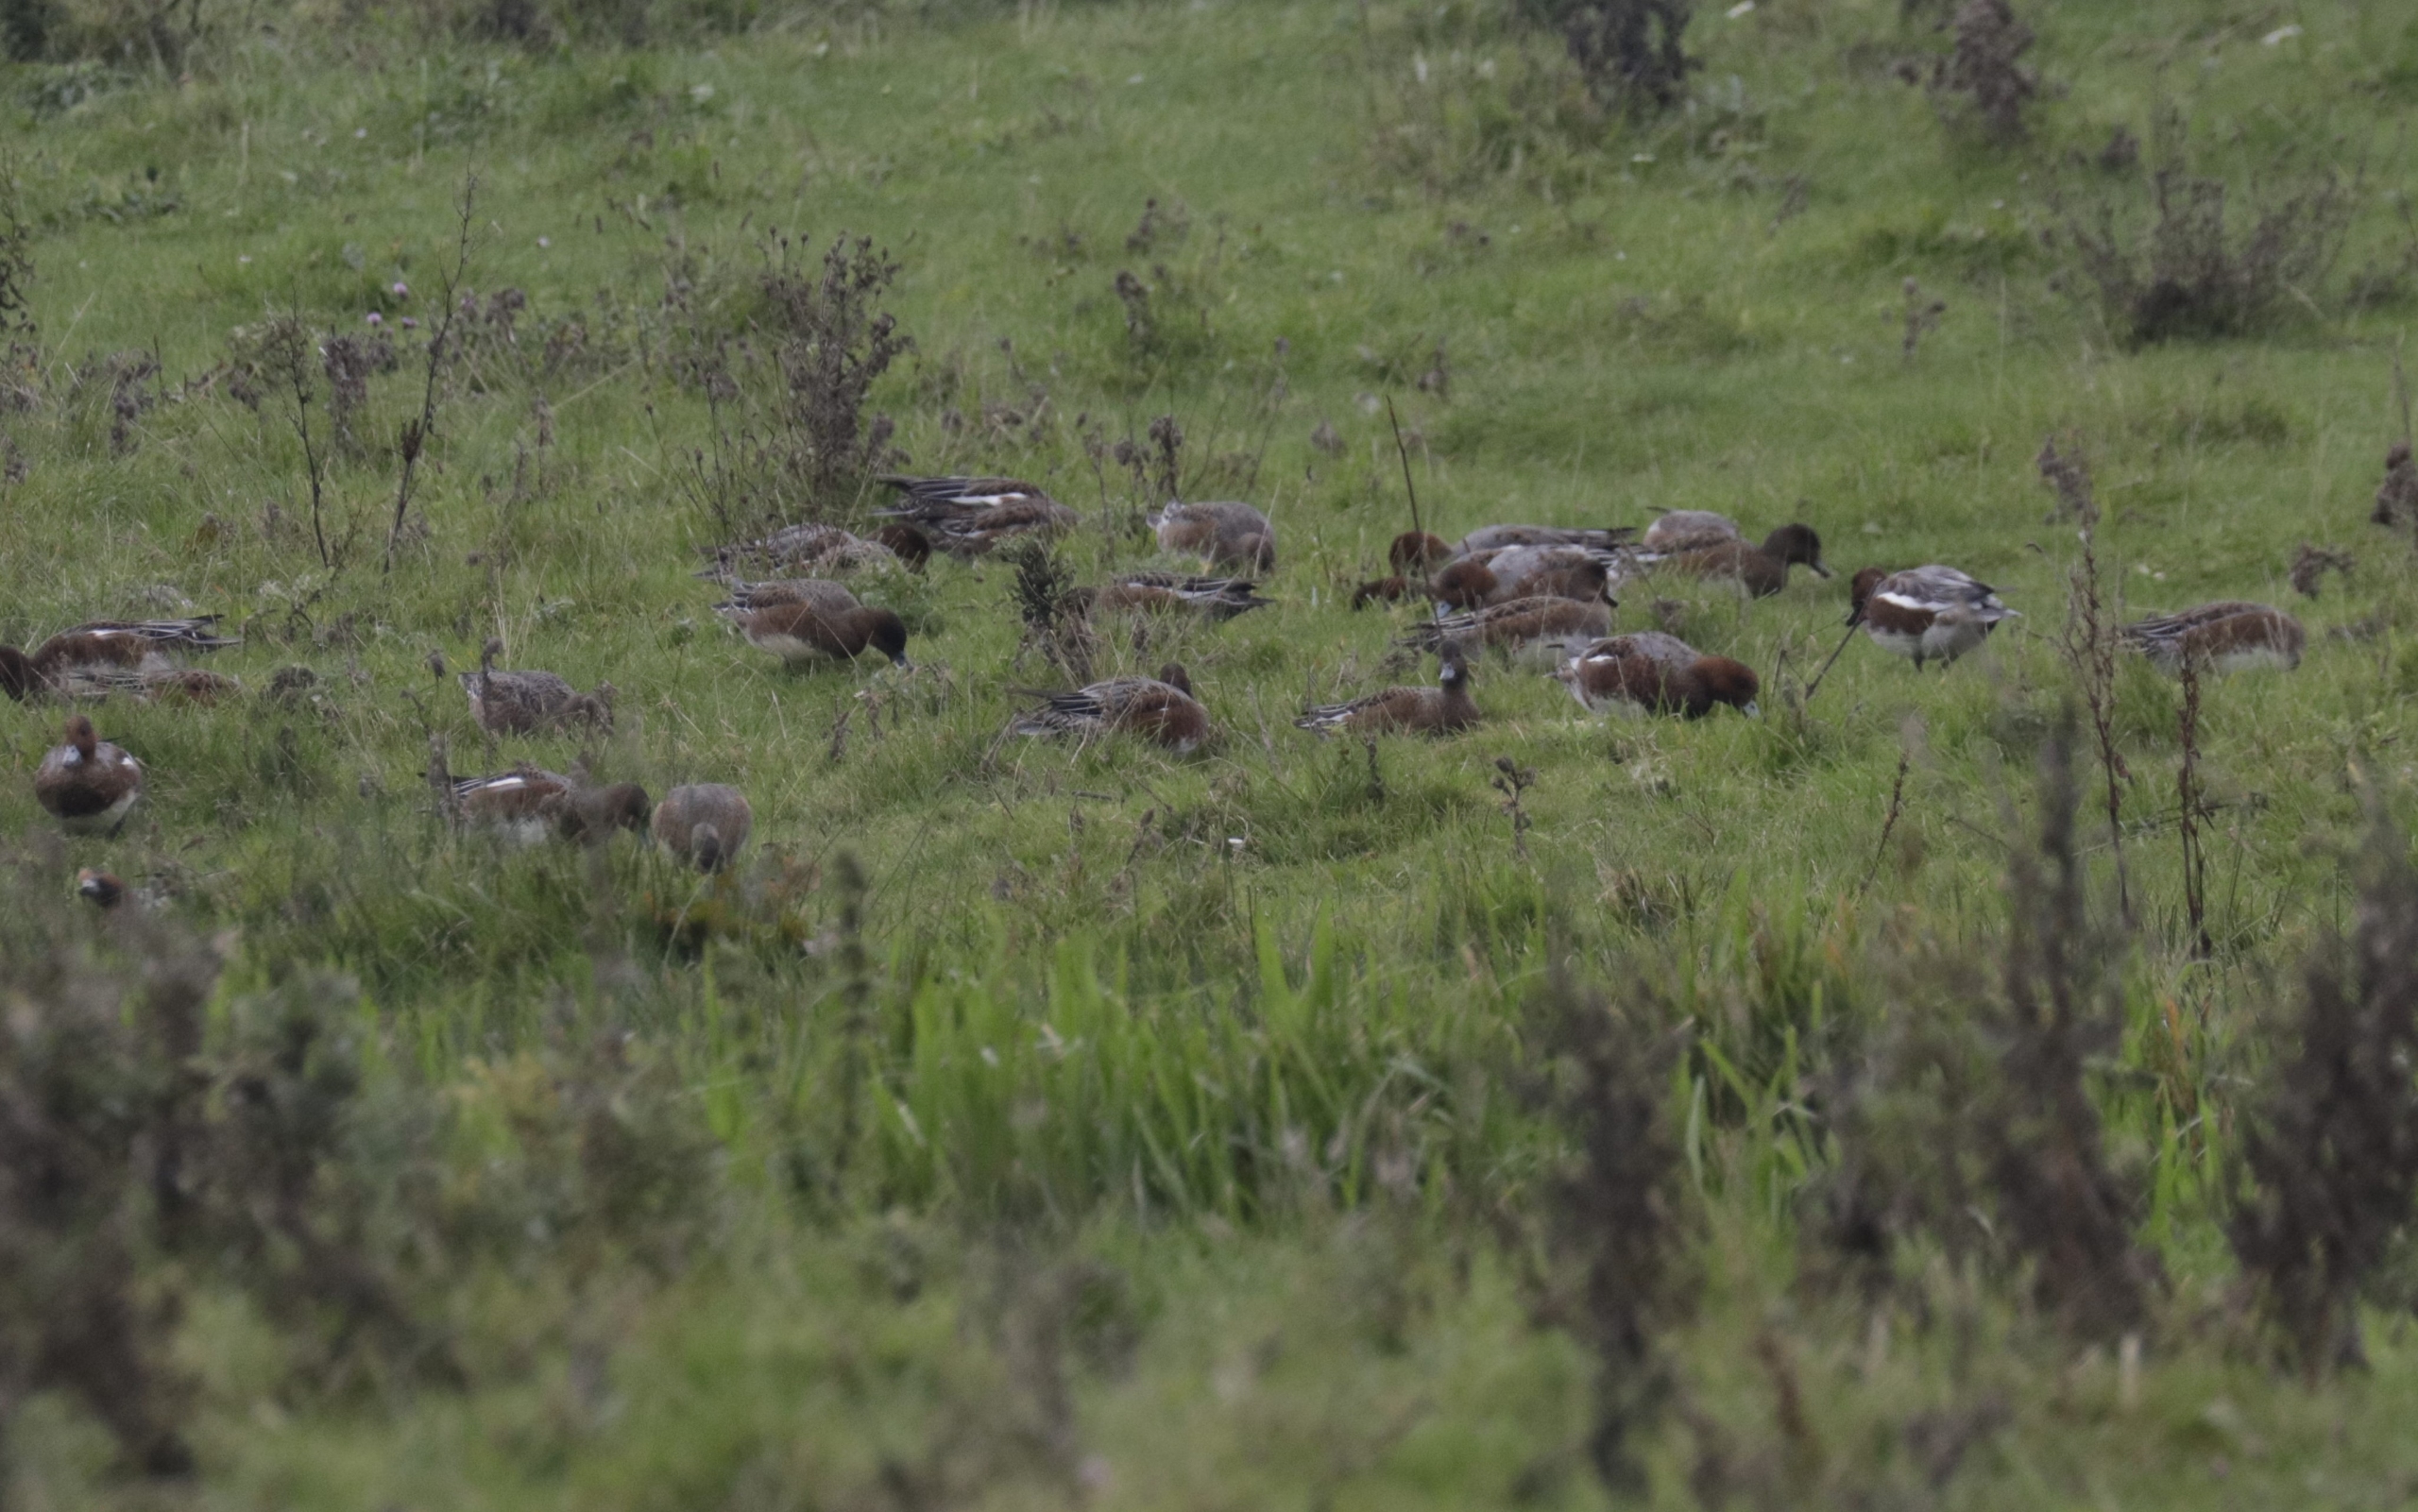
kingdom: Animalia
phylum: Chordata
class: Aves
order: Anseriformes
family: Anatidae
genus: Mareca
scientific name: Mareca penelope
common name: Pibeand
